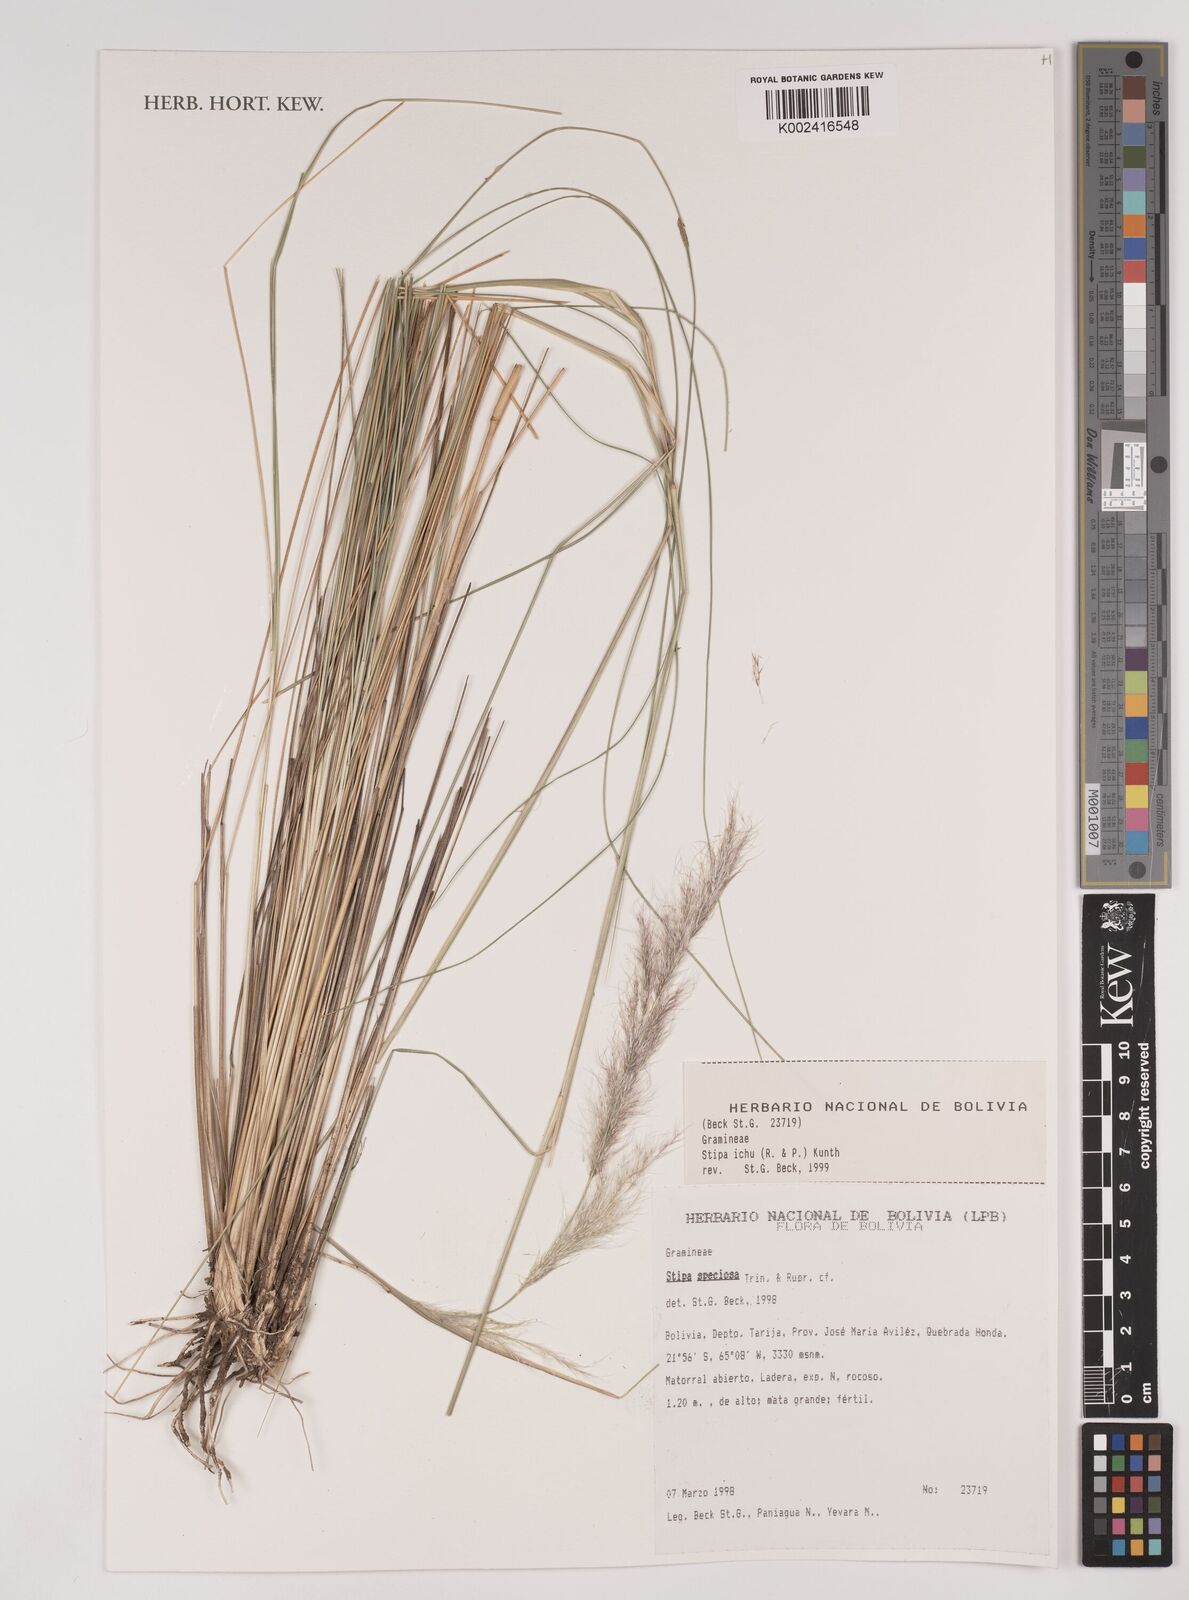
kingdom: Plantae
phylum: Tracheophyta
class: Liliopsida
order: Poales
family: Poaceae
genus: Jarava
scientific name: Jarava ichu
